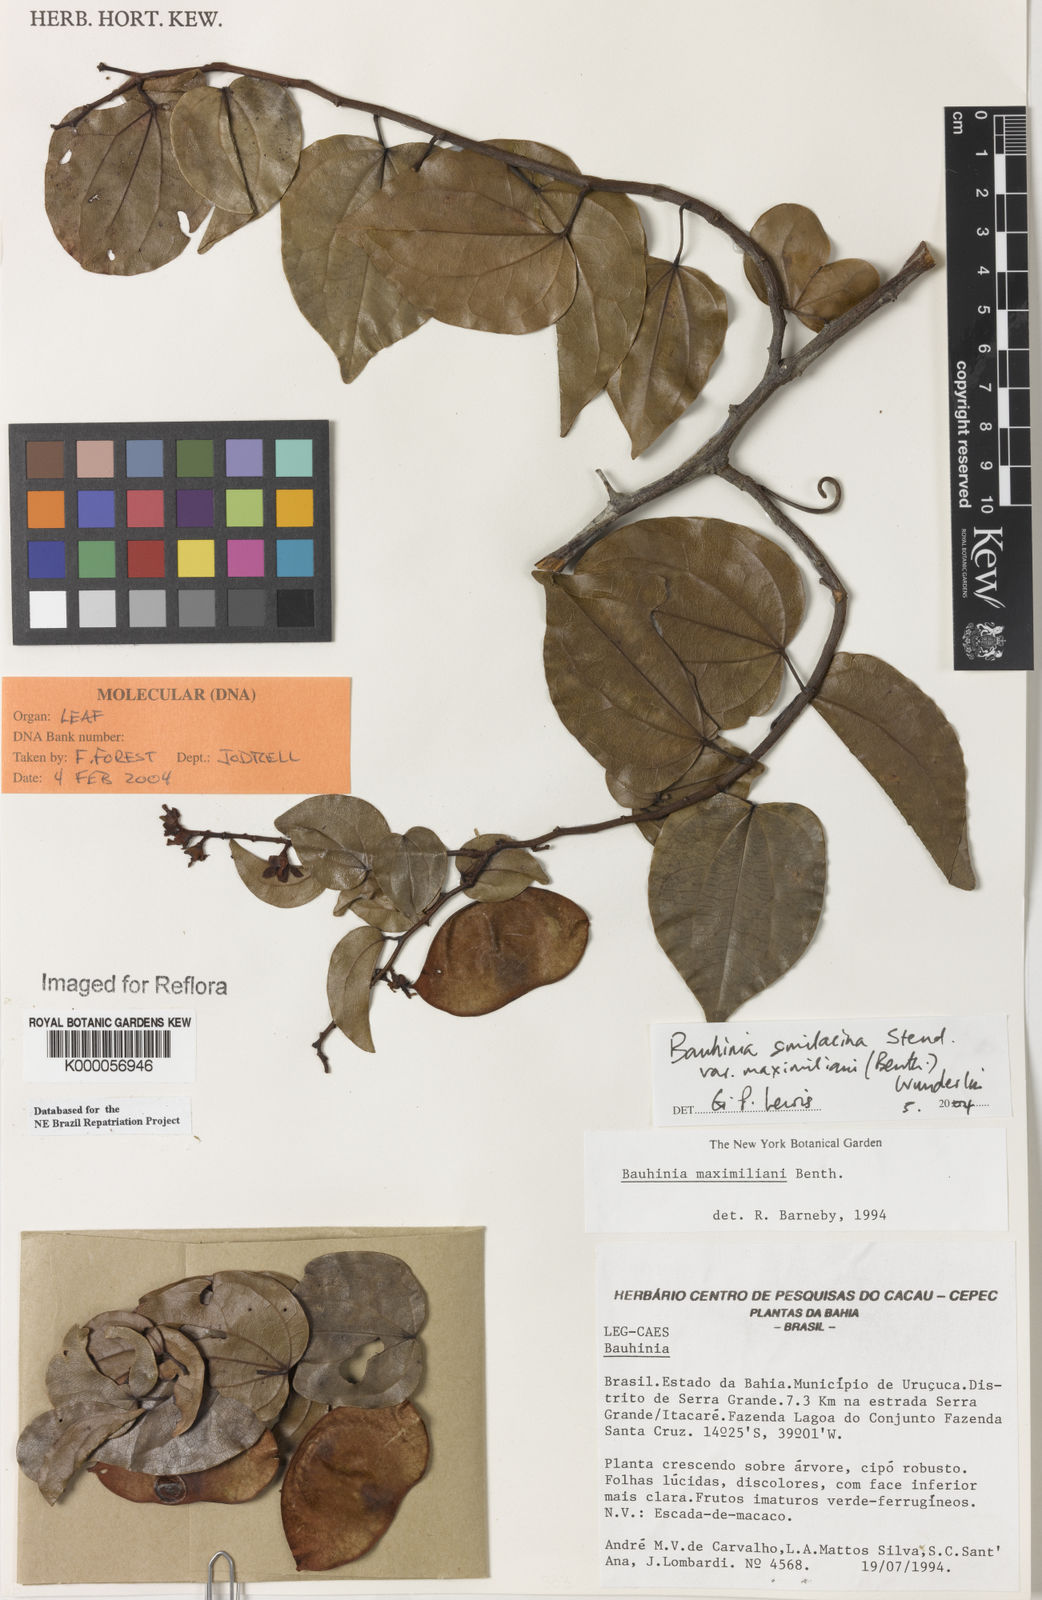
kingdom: Plantae
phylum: Tracheophyta
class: Magnoliopsida
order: Fabales
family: Fabaceae
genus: Schnella
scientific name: Schnella maximiliani
